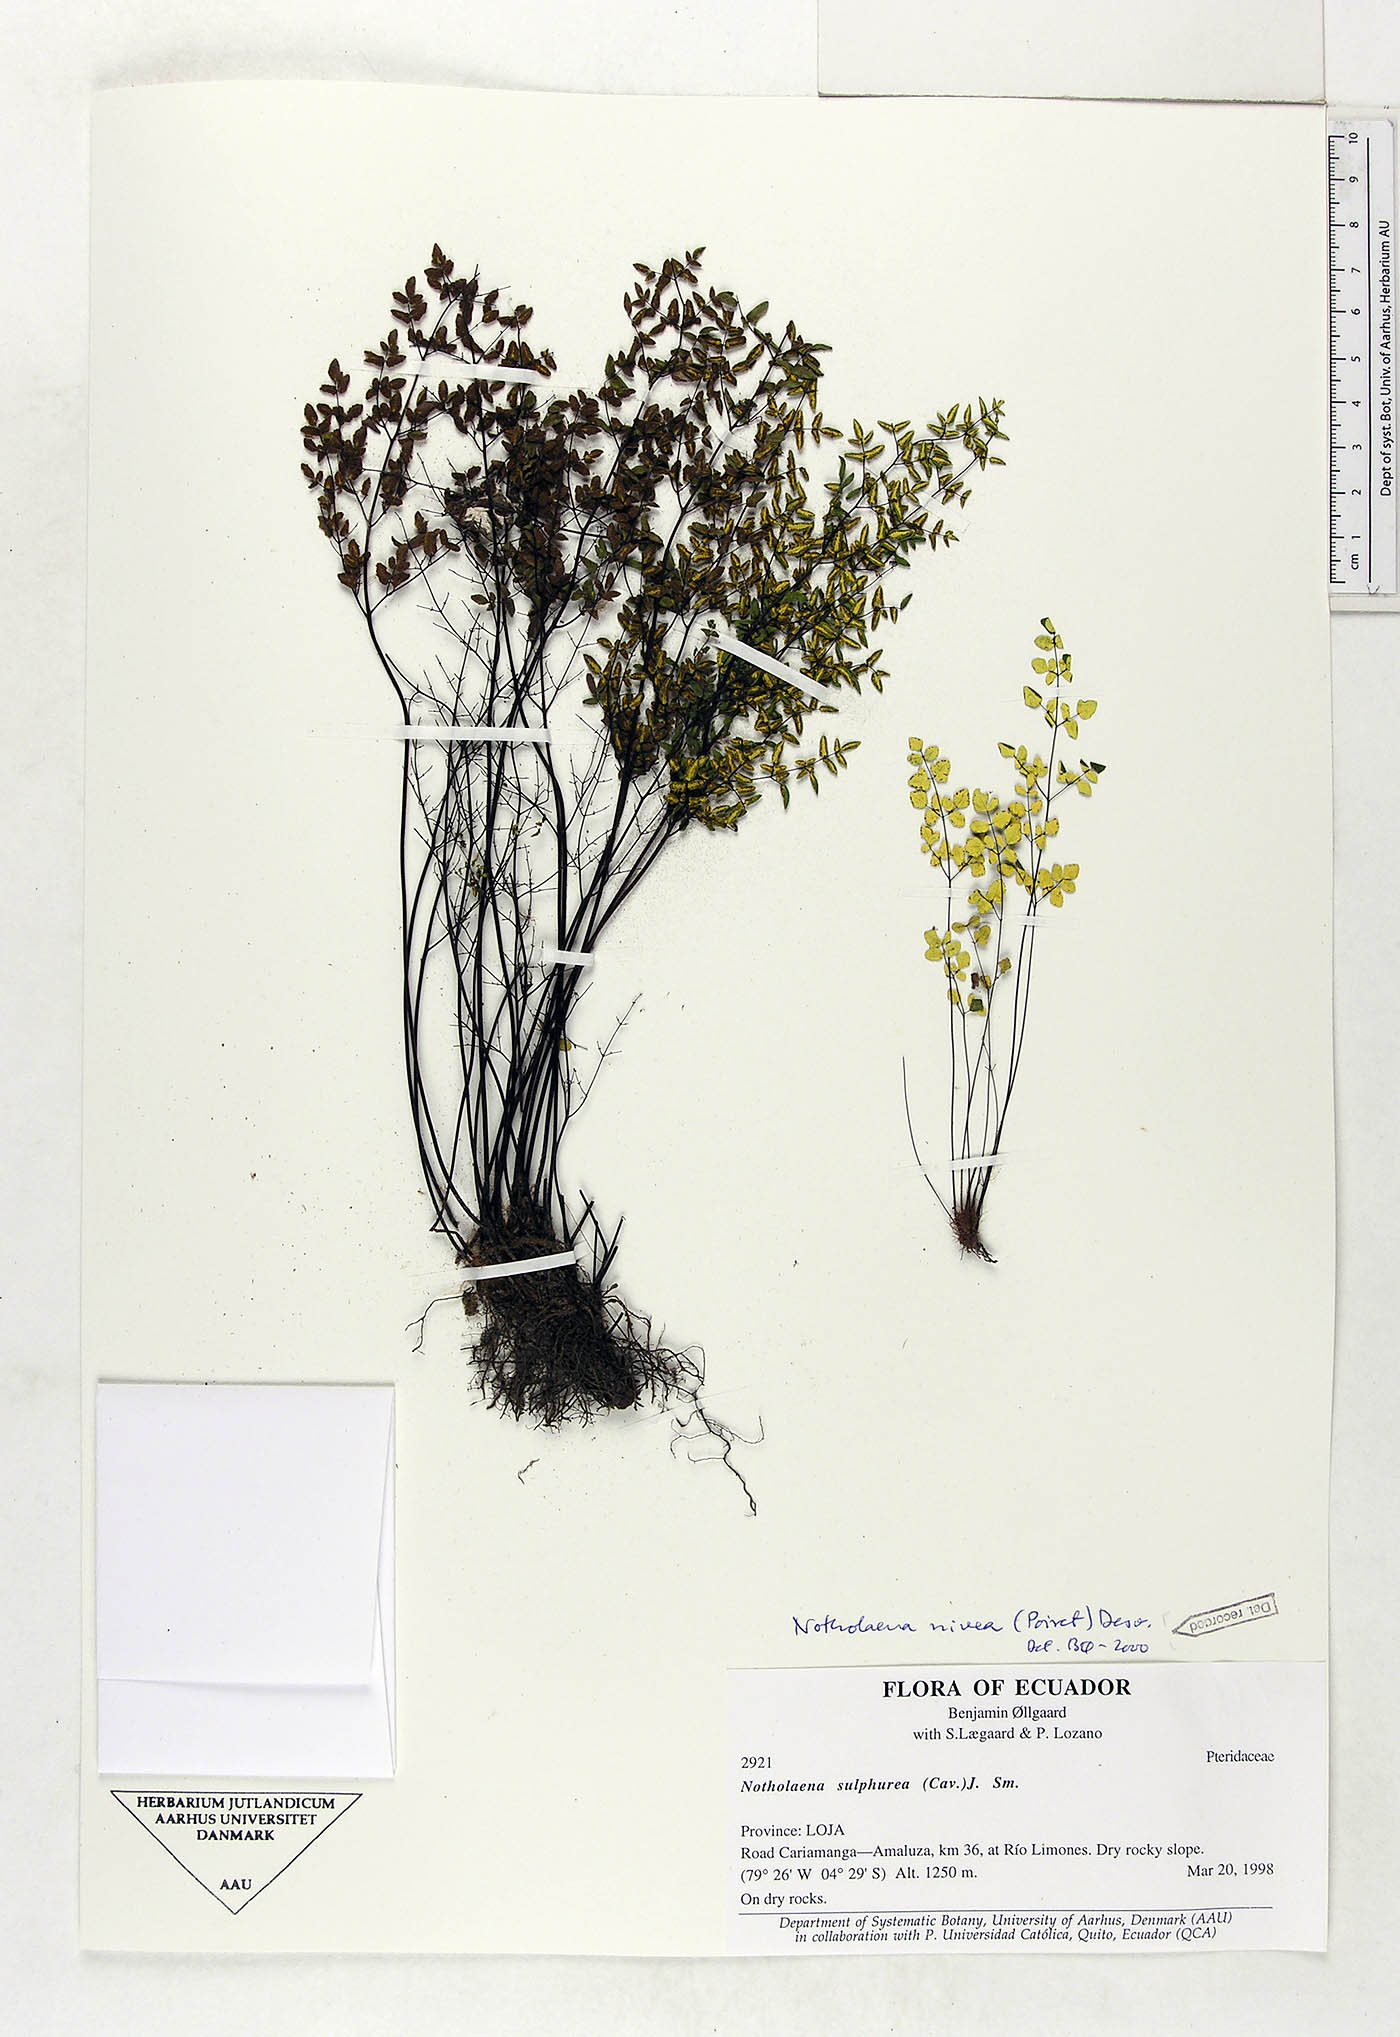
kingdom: Plantae
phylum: Tracheophyta
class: Polypodiopsida
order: Polypodiales
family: Pteridaceae
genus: Argyrochosma
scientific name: Argyrochosma nivea
